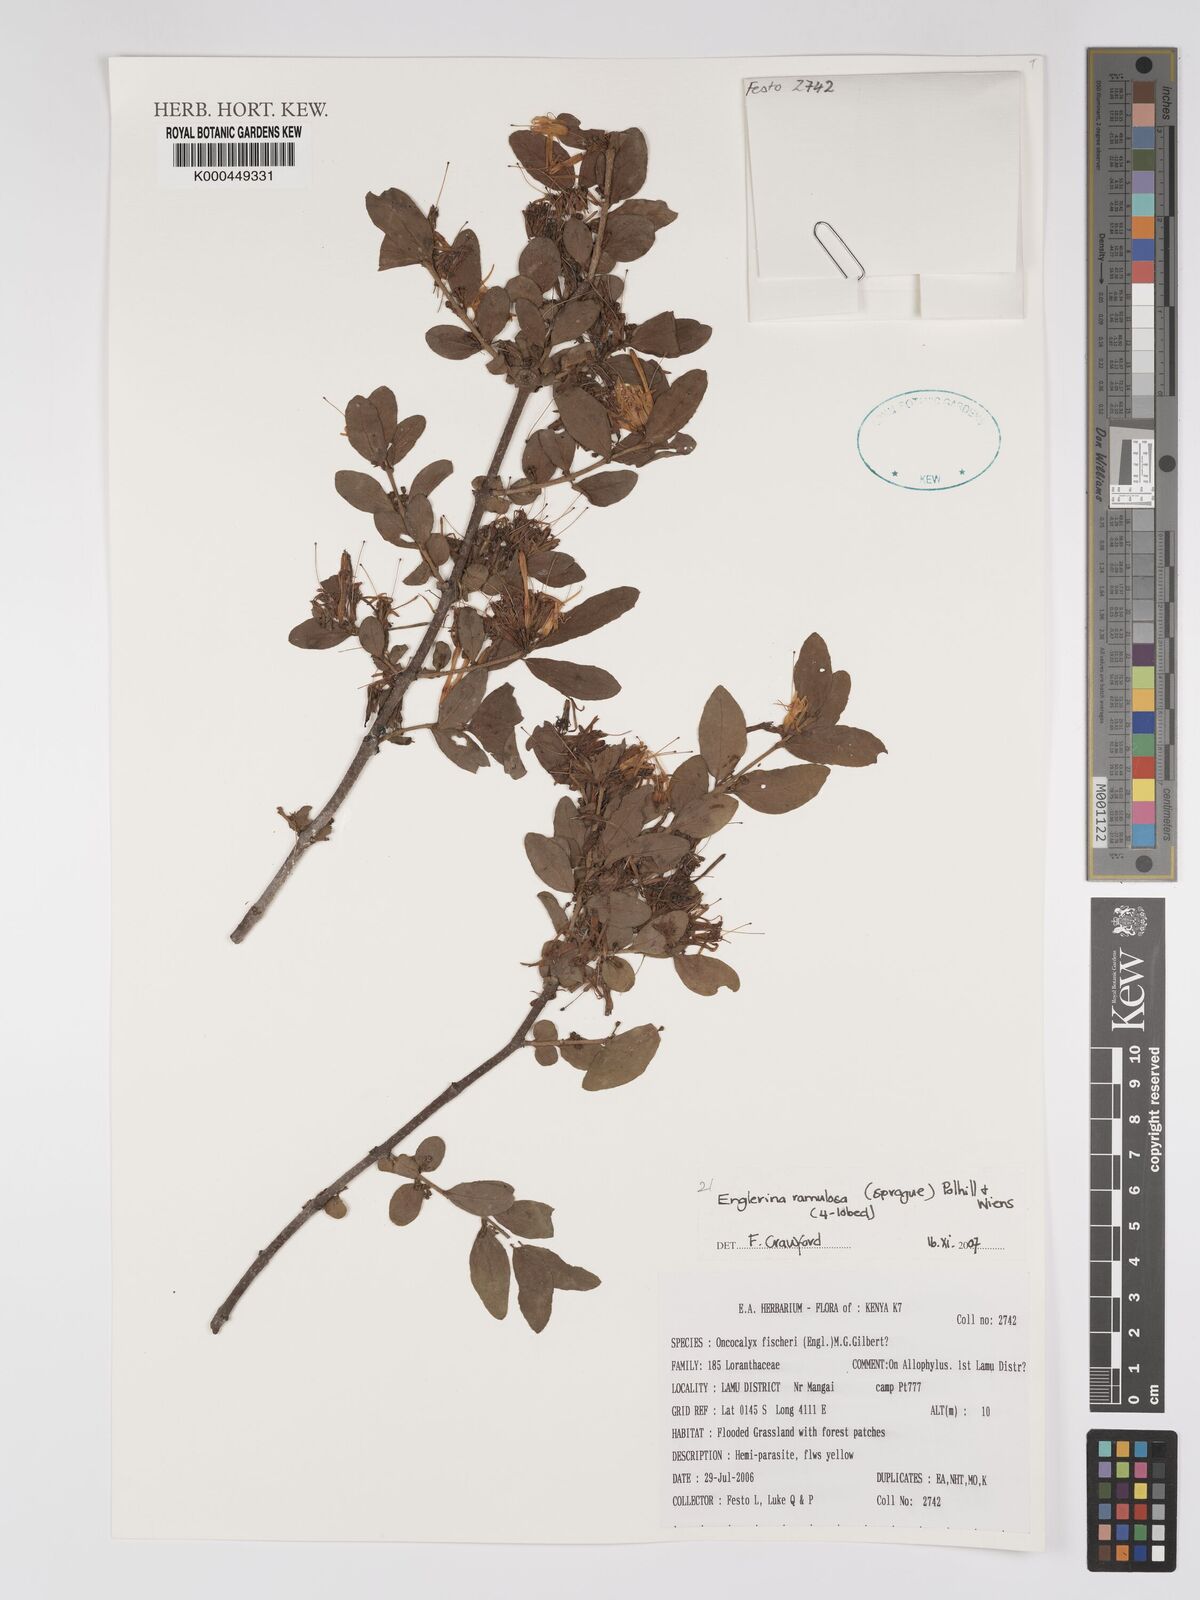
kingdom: Plantae
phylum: Tracheophyta
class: Magnoliopsida
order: Santalales
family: Loranthaceae
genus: Englerina
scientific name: Englerina ramulosa
